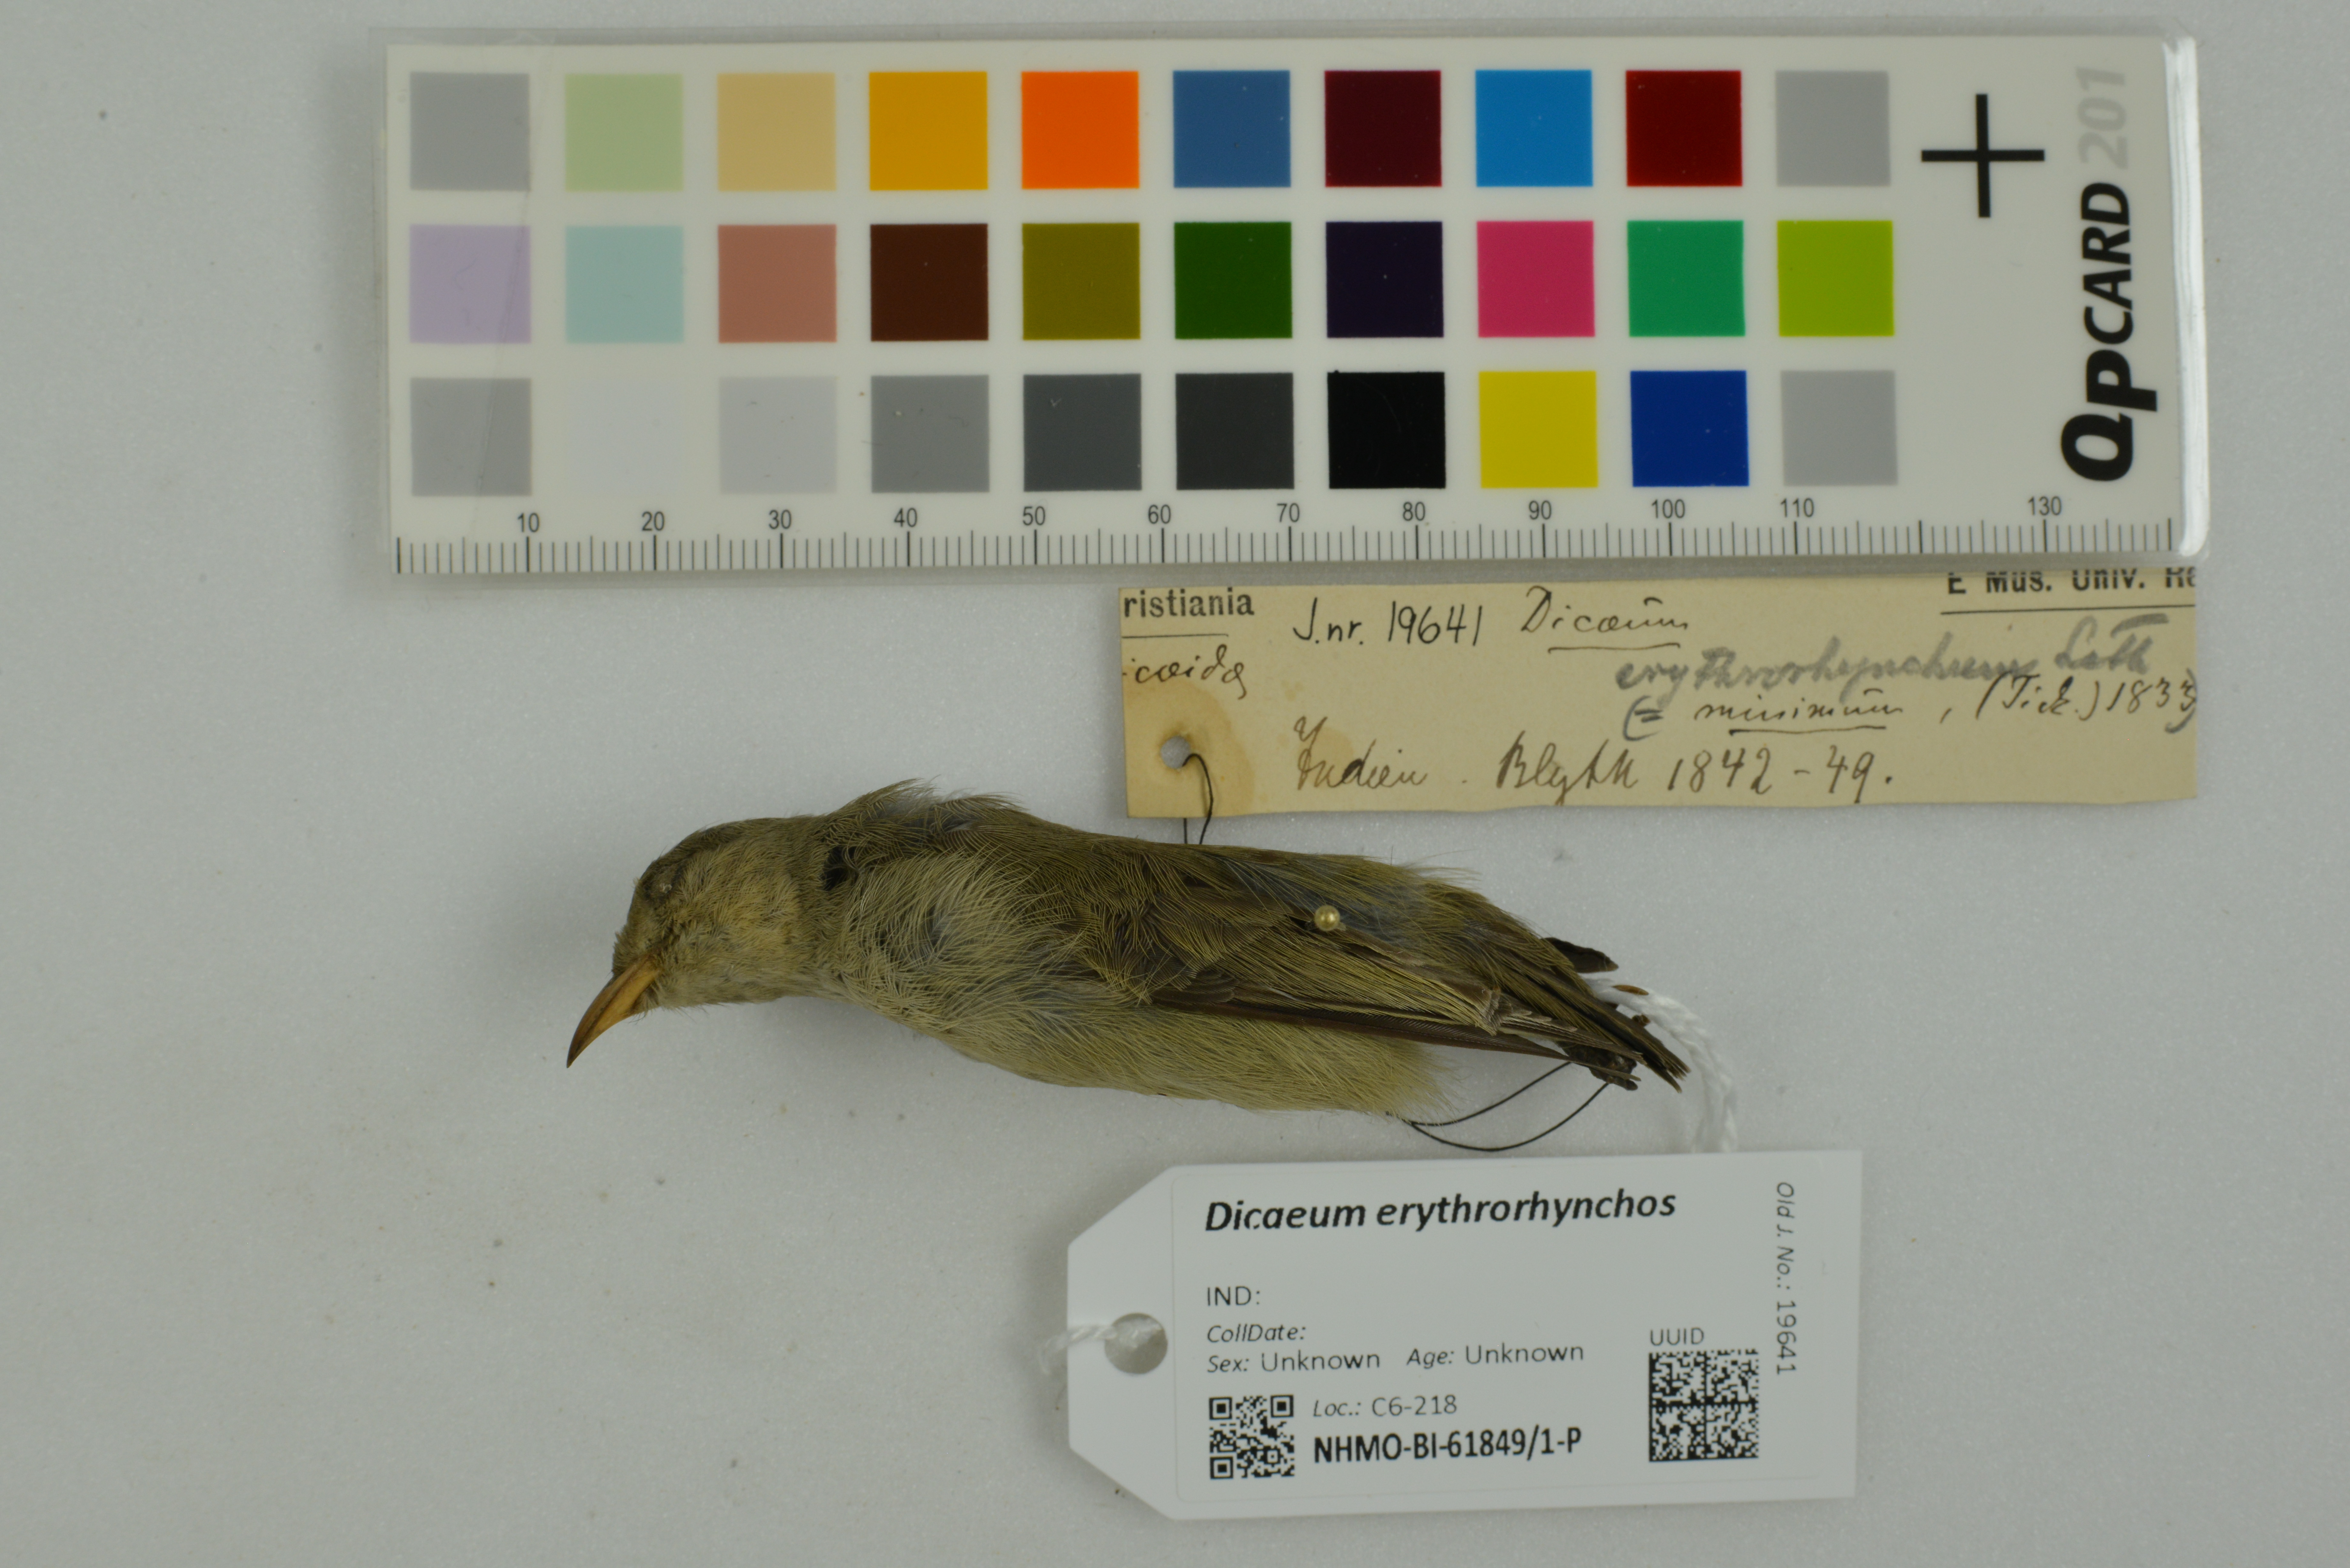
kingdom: Animalia
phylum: Chordata
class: Aves
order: Passeriformes
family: Dicaeidae
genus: Dicaeum
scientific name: Dicaeum erythrorhynchos
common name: Pale-billed flowerpecker
